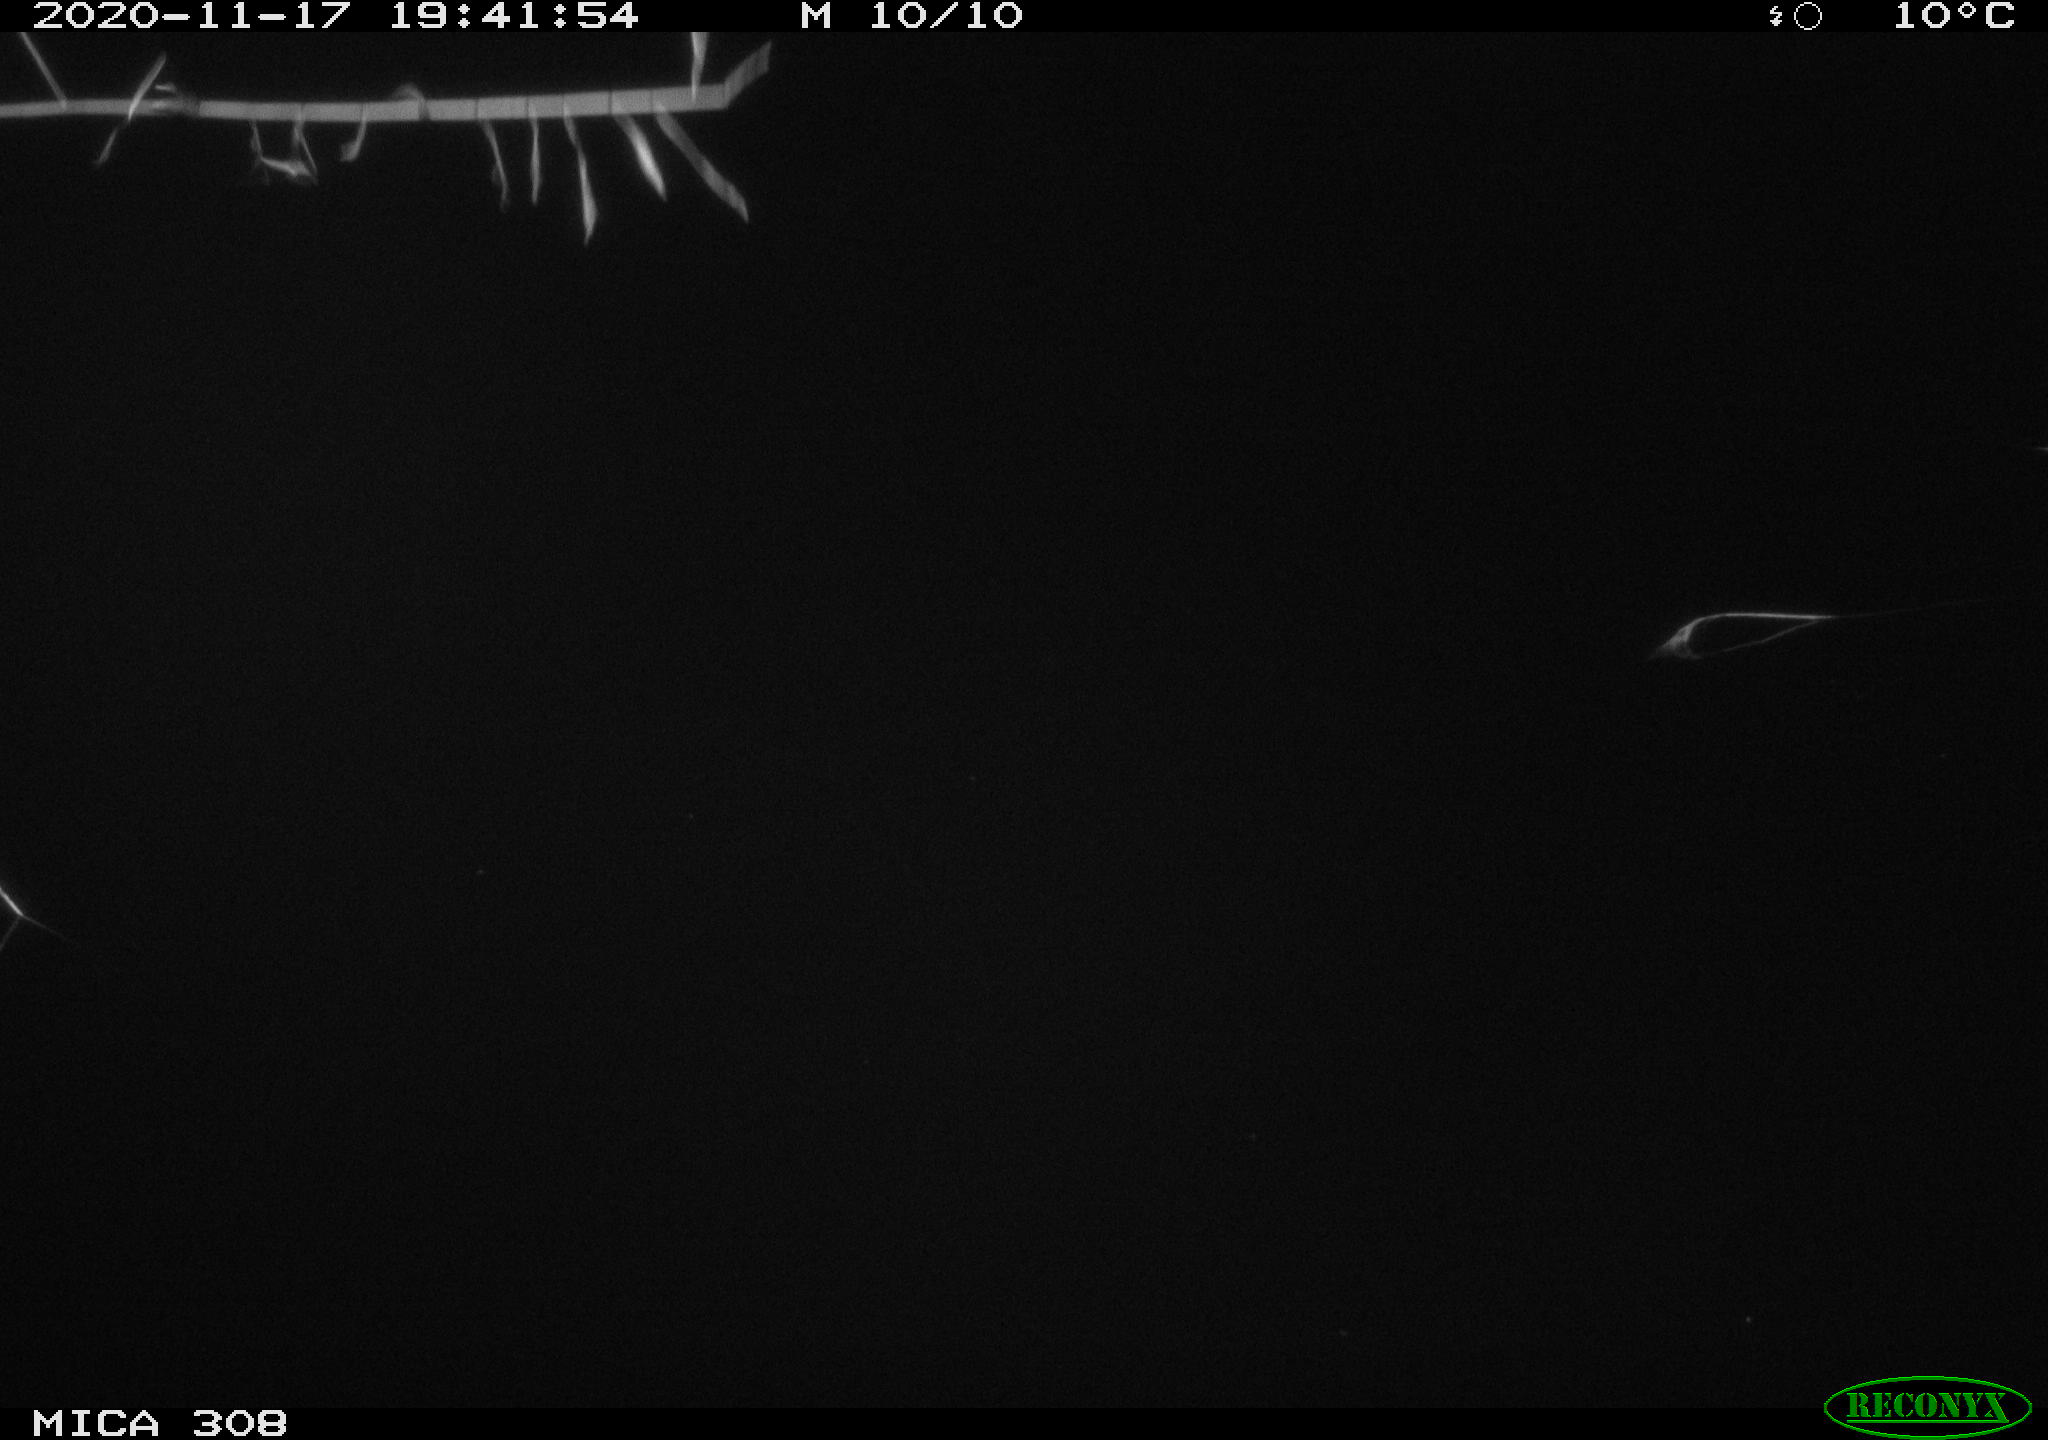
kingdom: Animalia
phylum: Chordata
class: Aves
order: Gruiformes
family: Rallidae
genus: Fulica
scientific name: Fulica atra
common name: Eurasian coot
